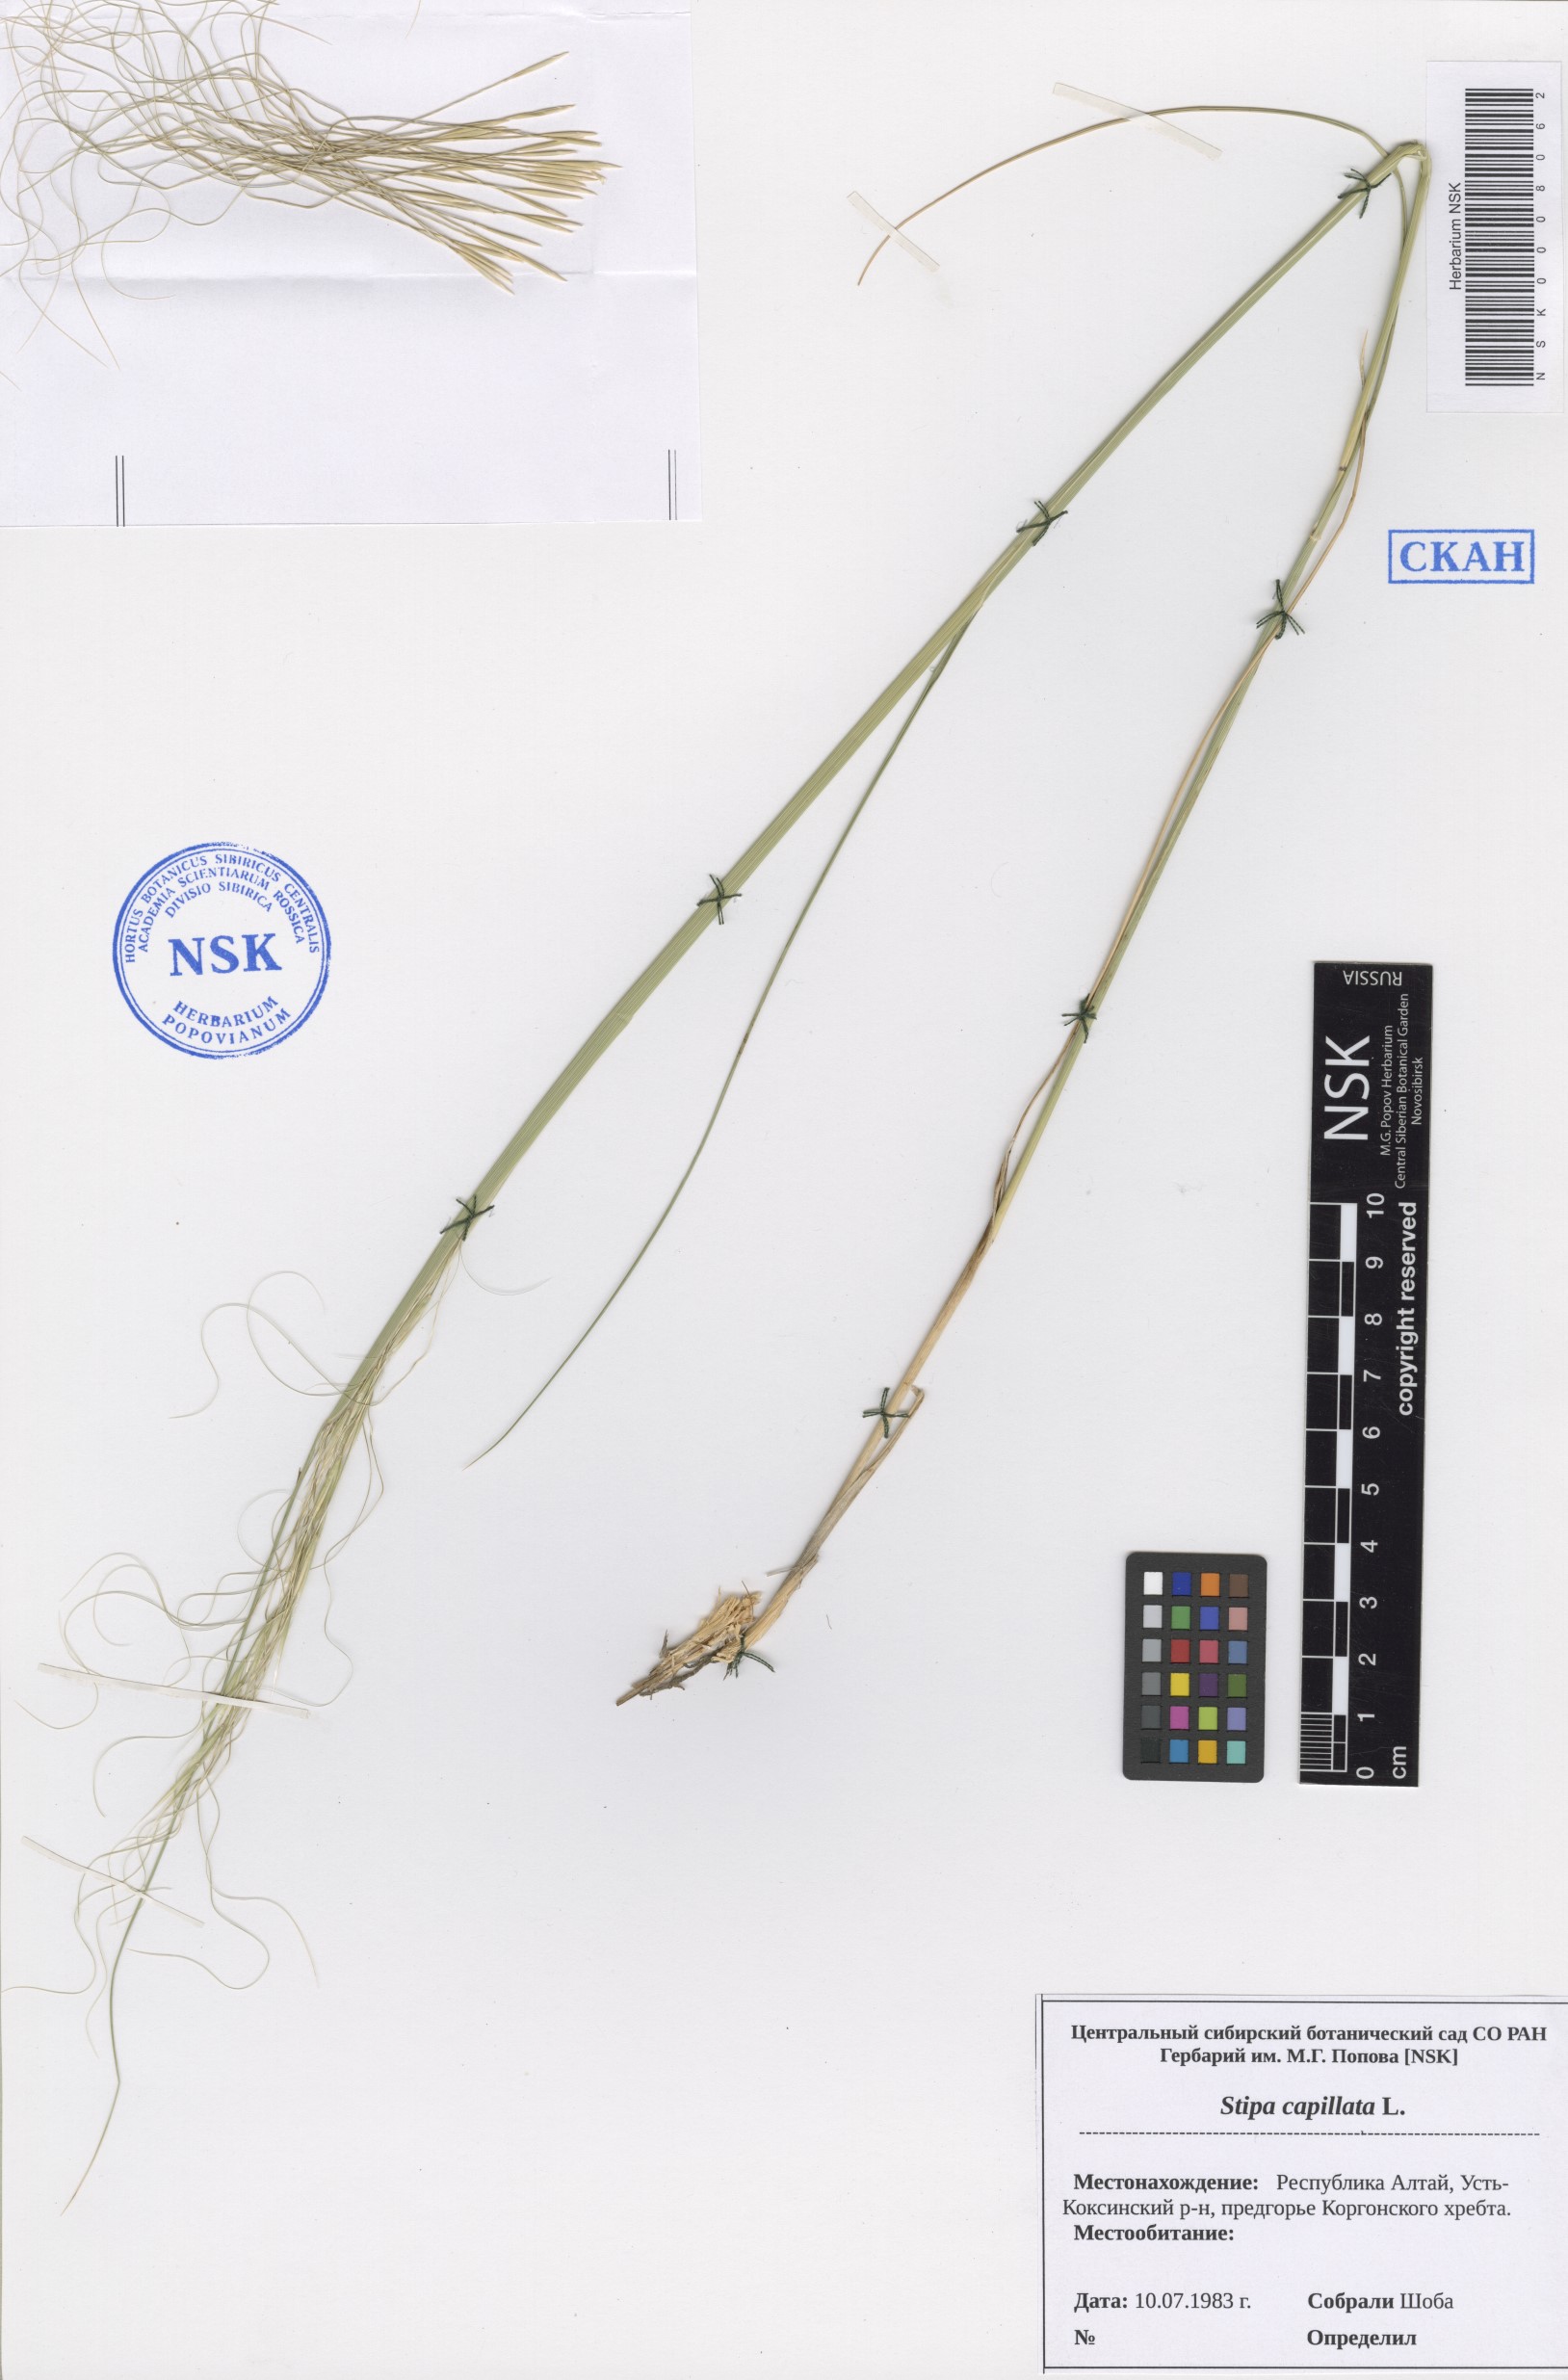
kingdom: Plantae
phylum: Tracheophyta
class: Liliopsida
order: Poales
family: Poaceae
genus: Stipa
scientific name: Stipa capillata
